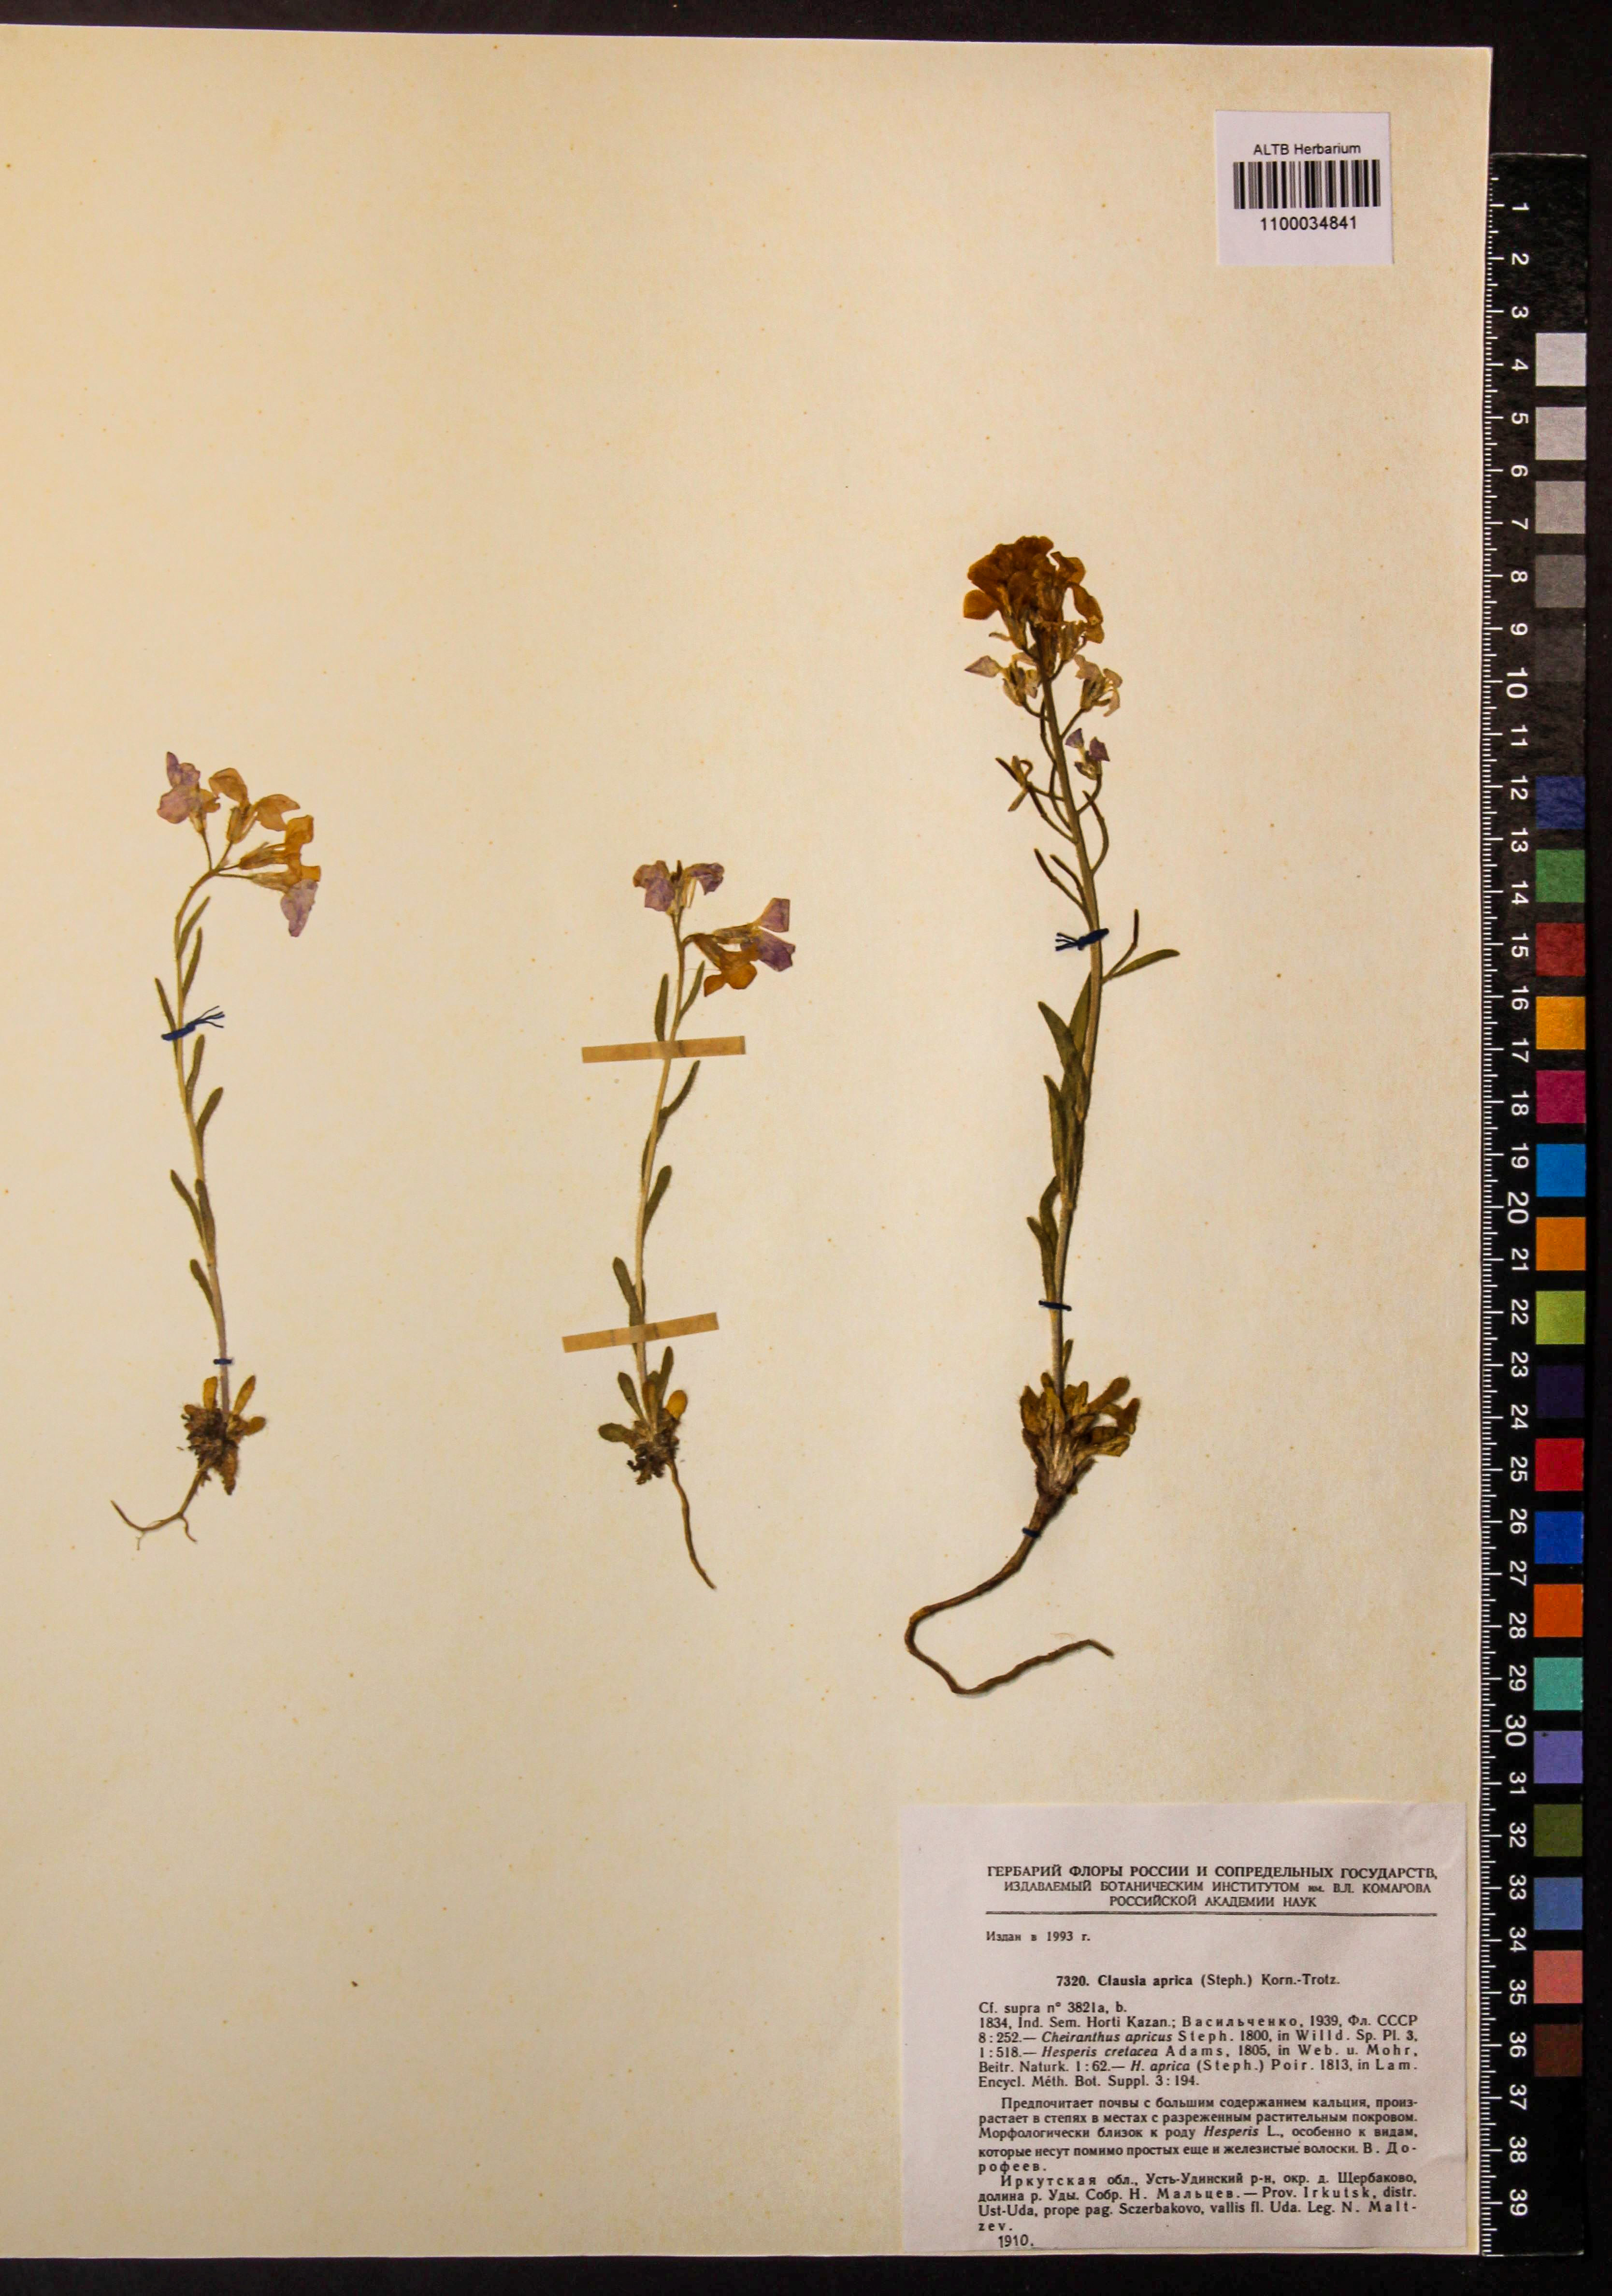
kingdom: Plantae
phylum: Tracheophyta
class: Magnoliopsida
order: Brassicales
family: Brassicaceae
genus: Clausia
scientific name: Clausia aprica
